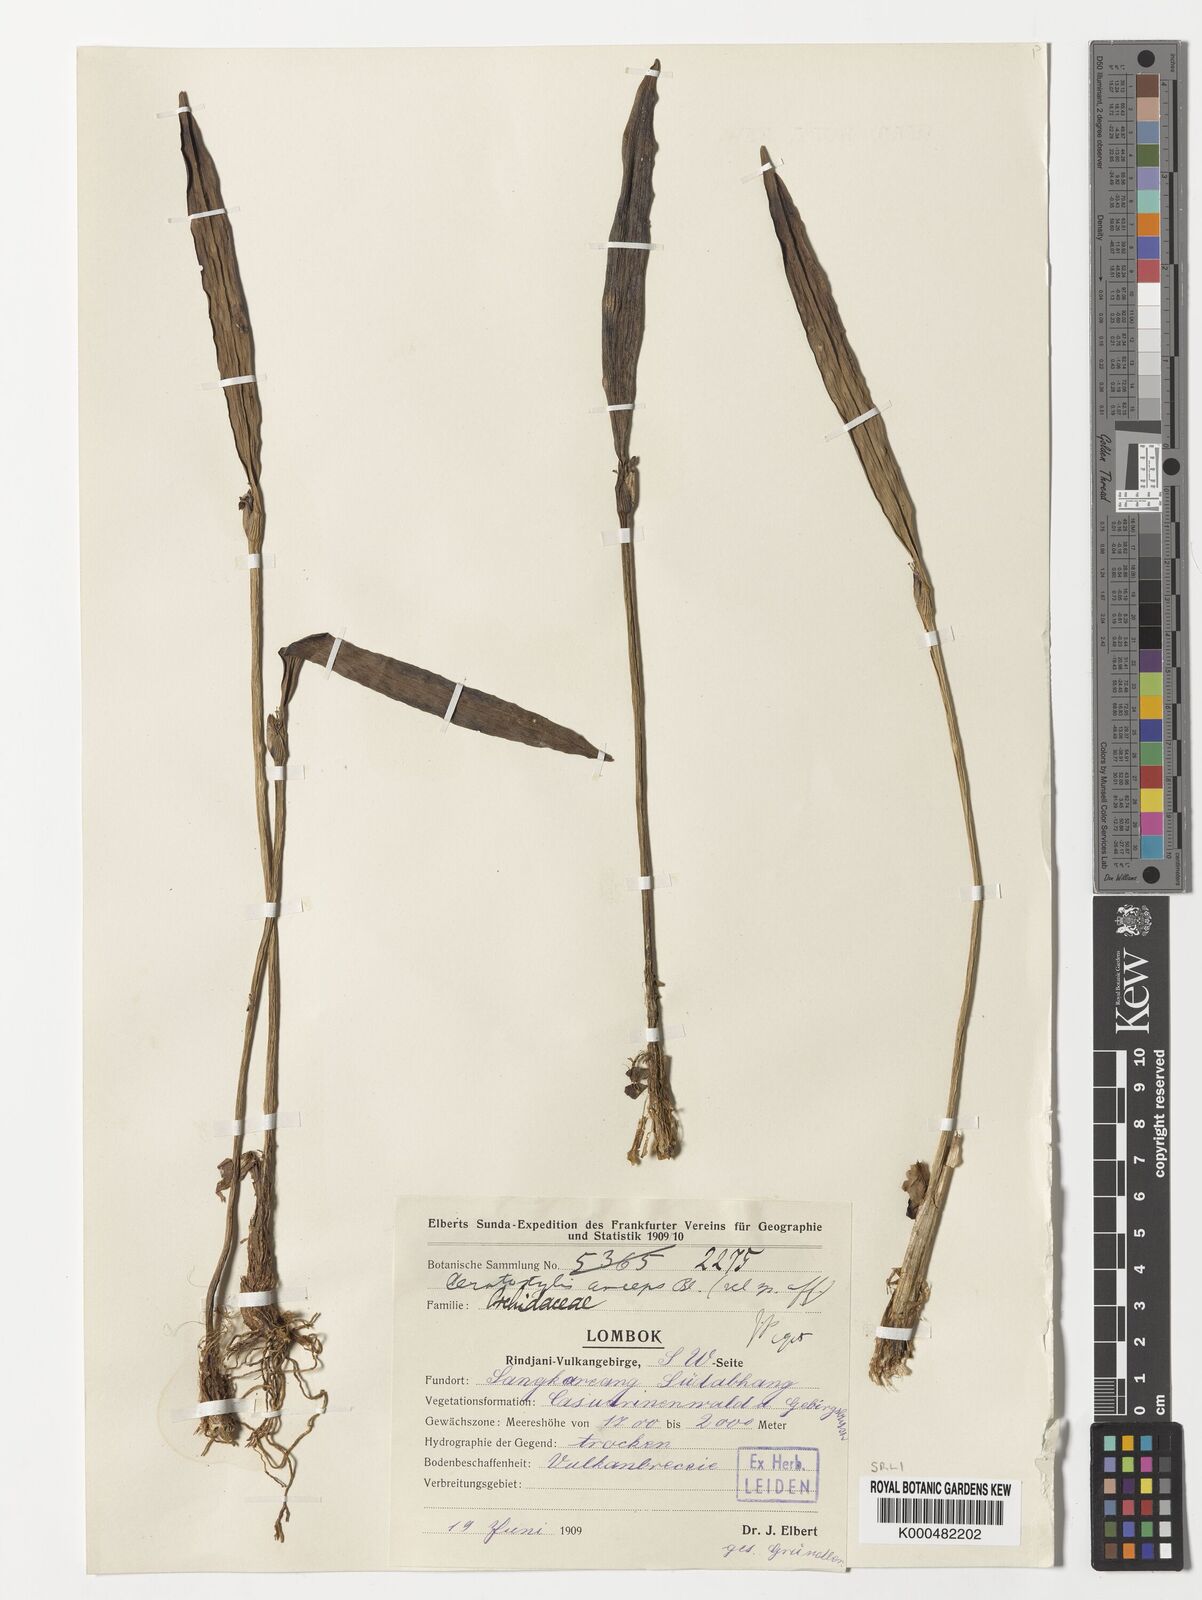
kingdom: Plantae
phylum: Tracheophyta
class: Liliopsida
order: Asparagales
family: Orchidaceae
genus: Ceratostylis
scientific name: Ceratostylis
